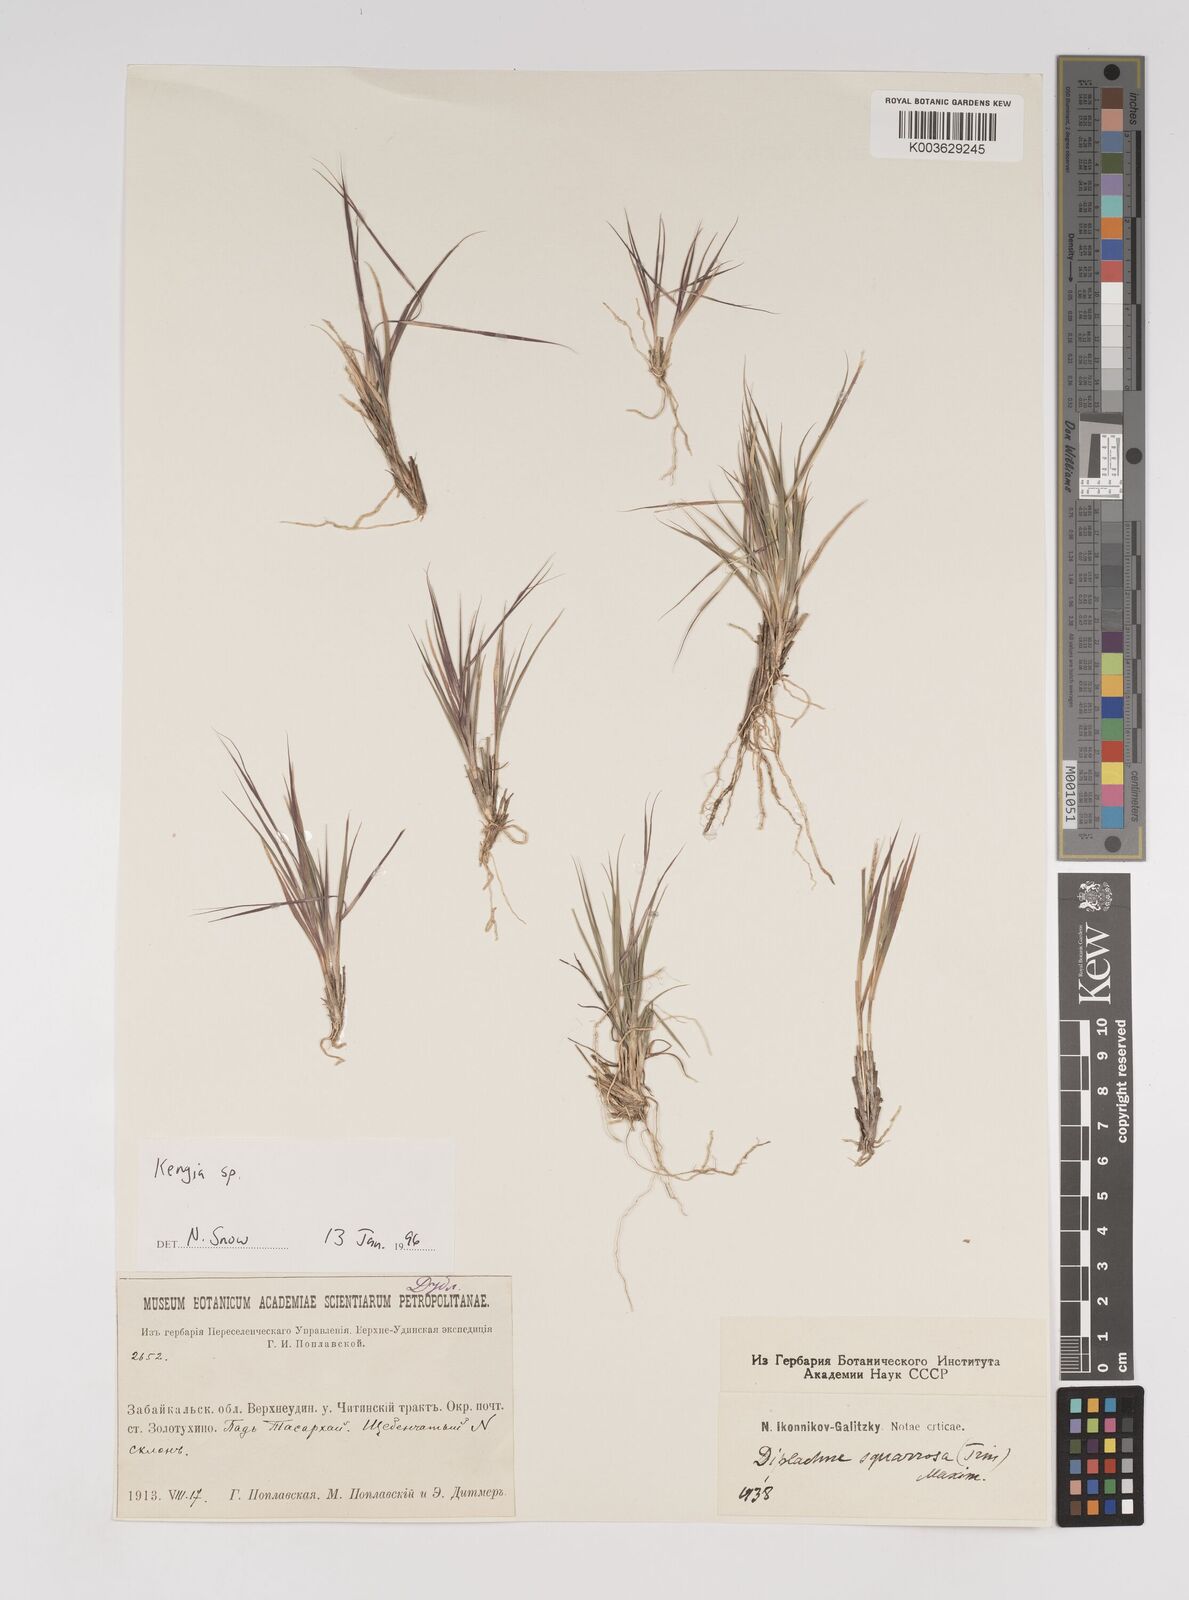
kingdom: Plantae
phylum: Tracheophyta
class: Liliopsida
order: Poales
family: Poaceae
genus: Cleistogenes
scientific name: Cleistogenes squarrosa
